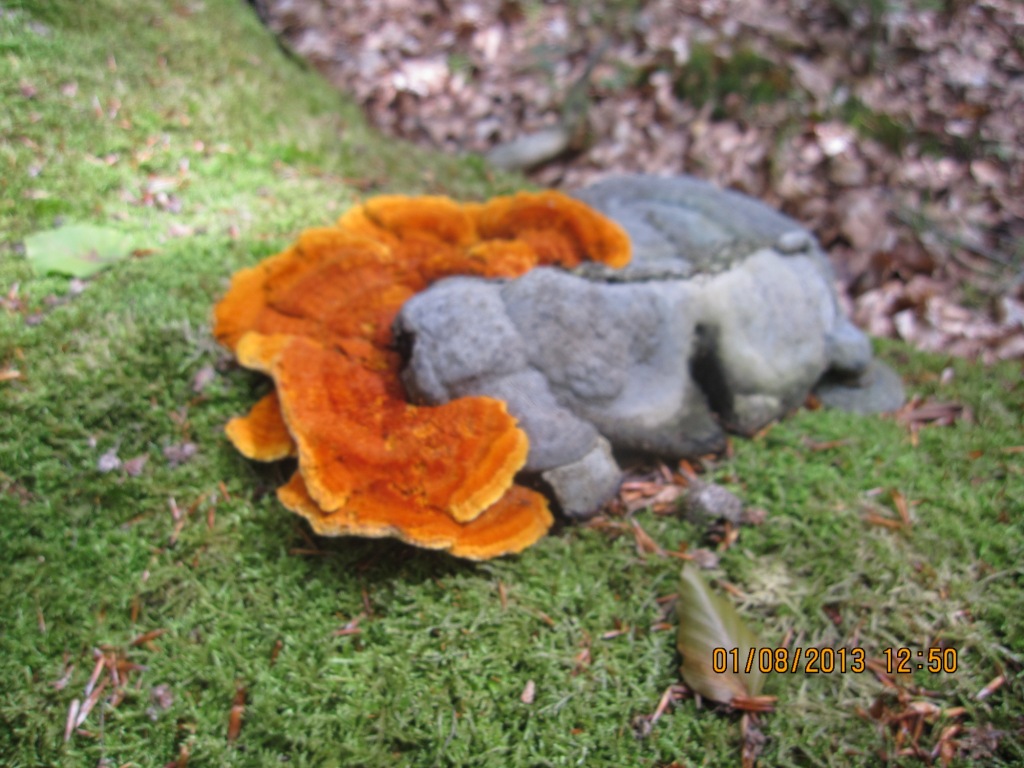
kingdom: Fungi
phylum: Basidiomycota
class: Agaricomycetes
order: Polyporales
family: Pycnoporellaceae
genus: Pycnoporellus
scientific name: Pycnoporellus fulgens
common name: flammeporesvamp
